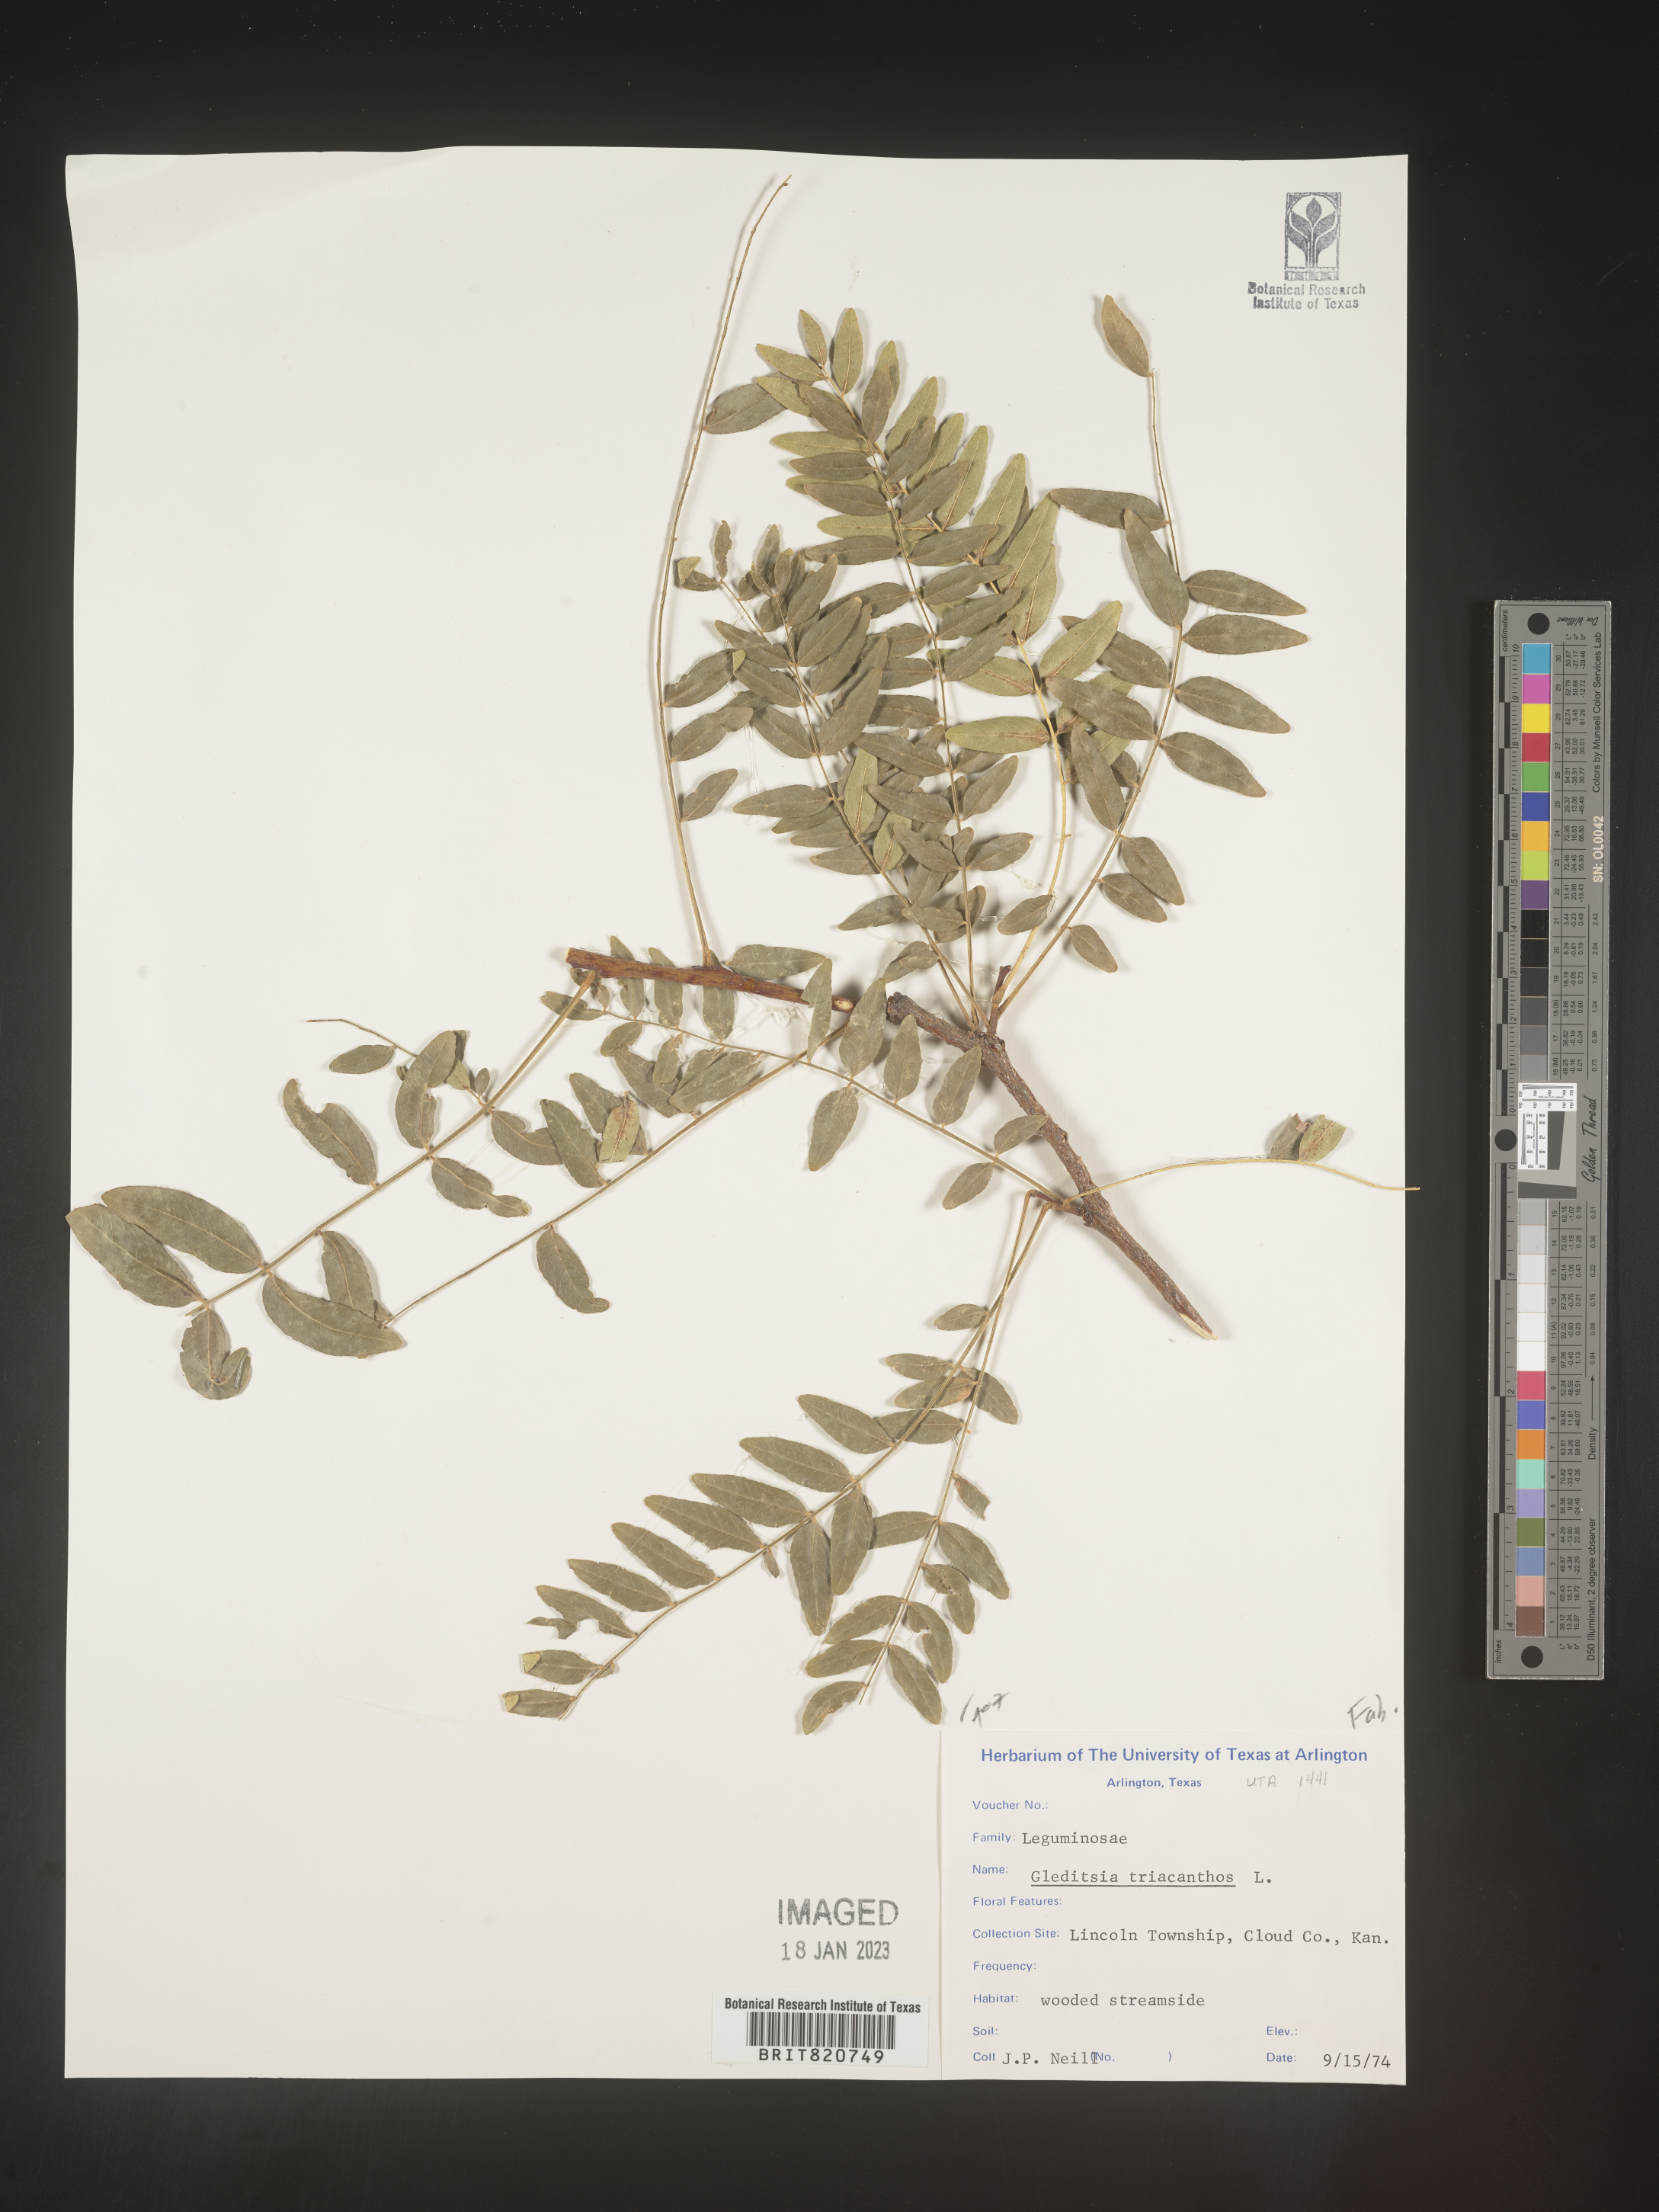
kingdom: Plantae
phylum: Tracheophyta
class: Magnoliopsida
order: Fabales
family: Fabaceae
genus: Gleditsia
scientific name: Gleditsia triacanthos
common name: Common honeylocust
